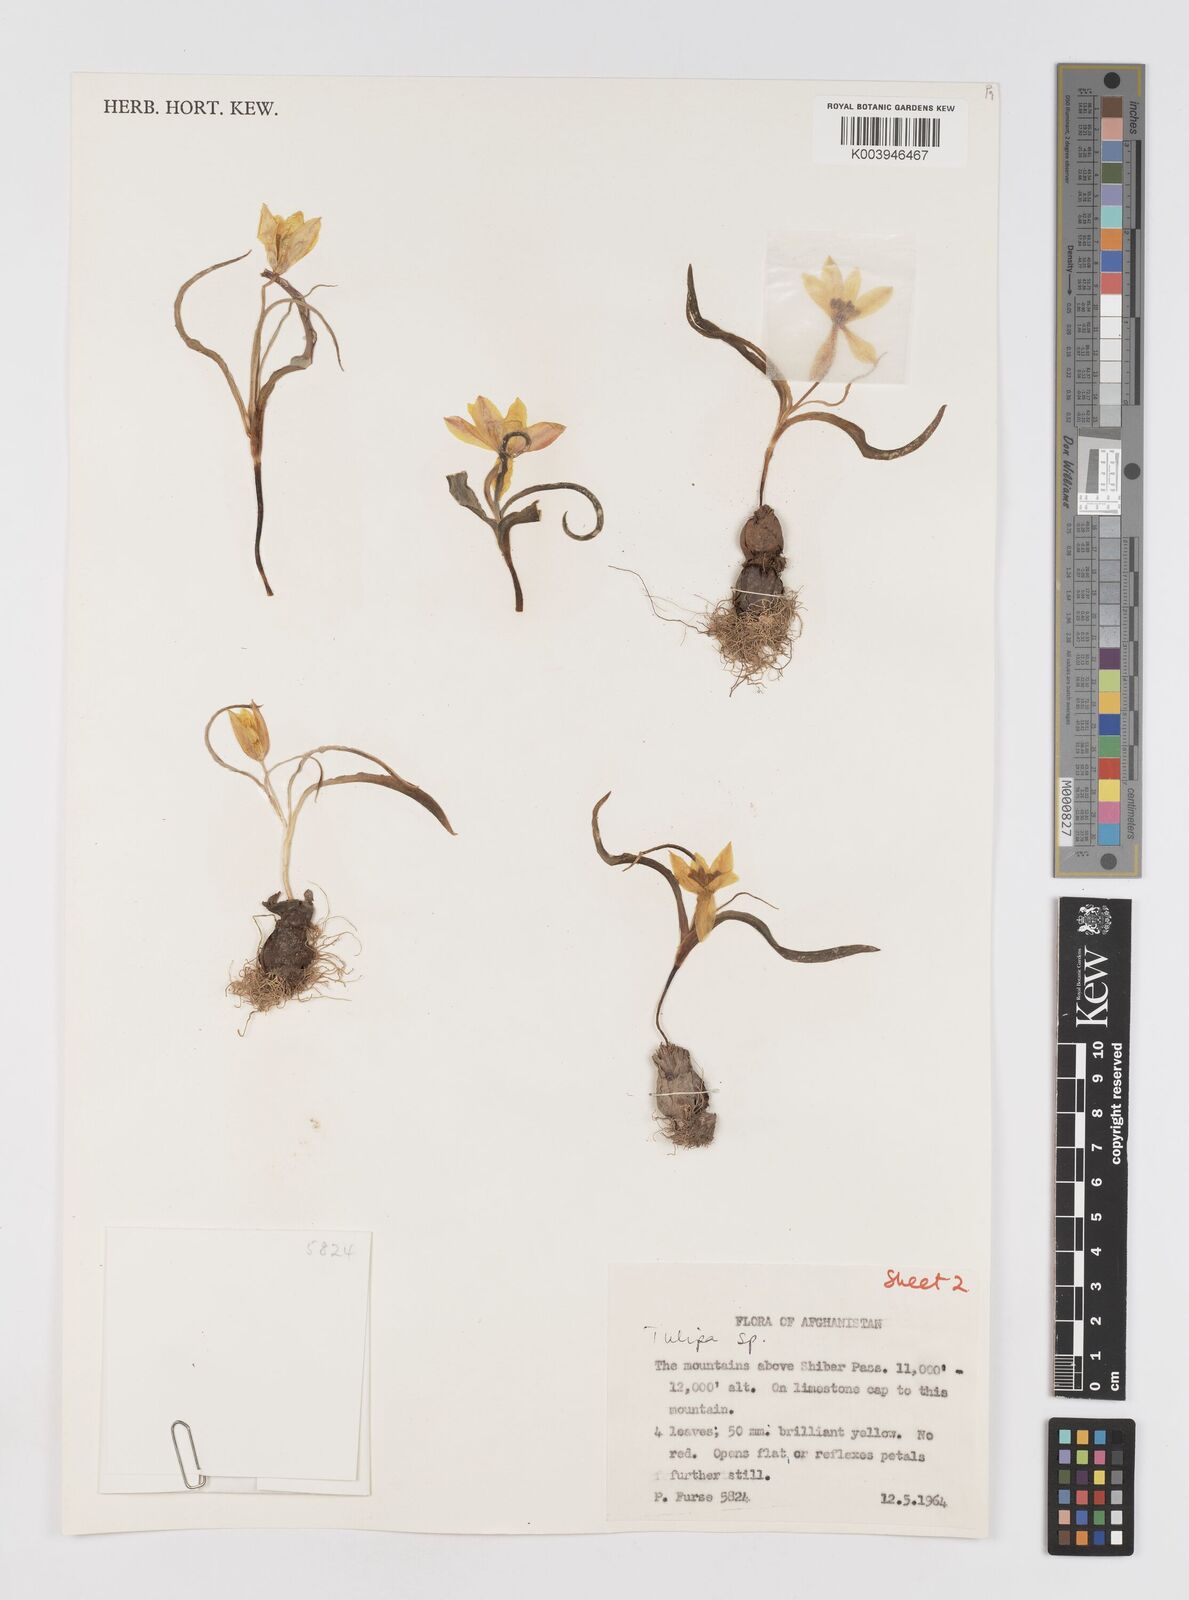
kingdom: Plantae
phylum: Tracheophyta
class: Liliopsida
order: Liliales
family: Liliaceae
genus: Tulipa
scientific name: Tulipa
